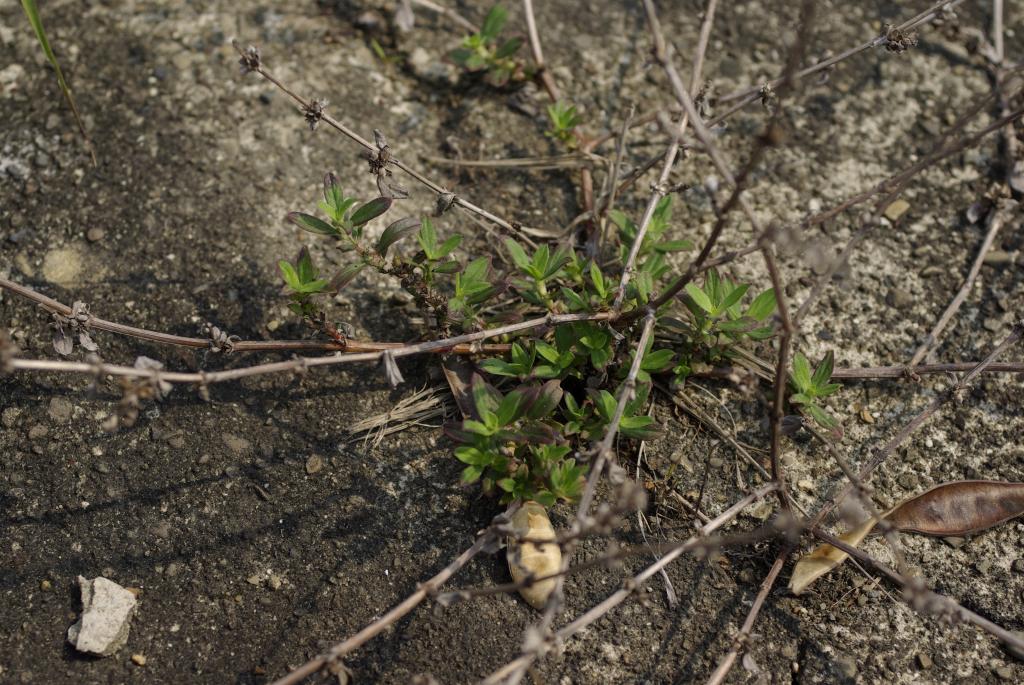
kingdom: Plantae
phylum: Tracheophyta
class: Magnoliopsida
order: Gentianales
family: Rubiaceae
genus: Spermacoce
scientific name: Spermacoce articularis
